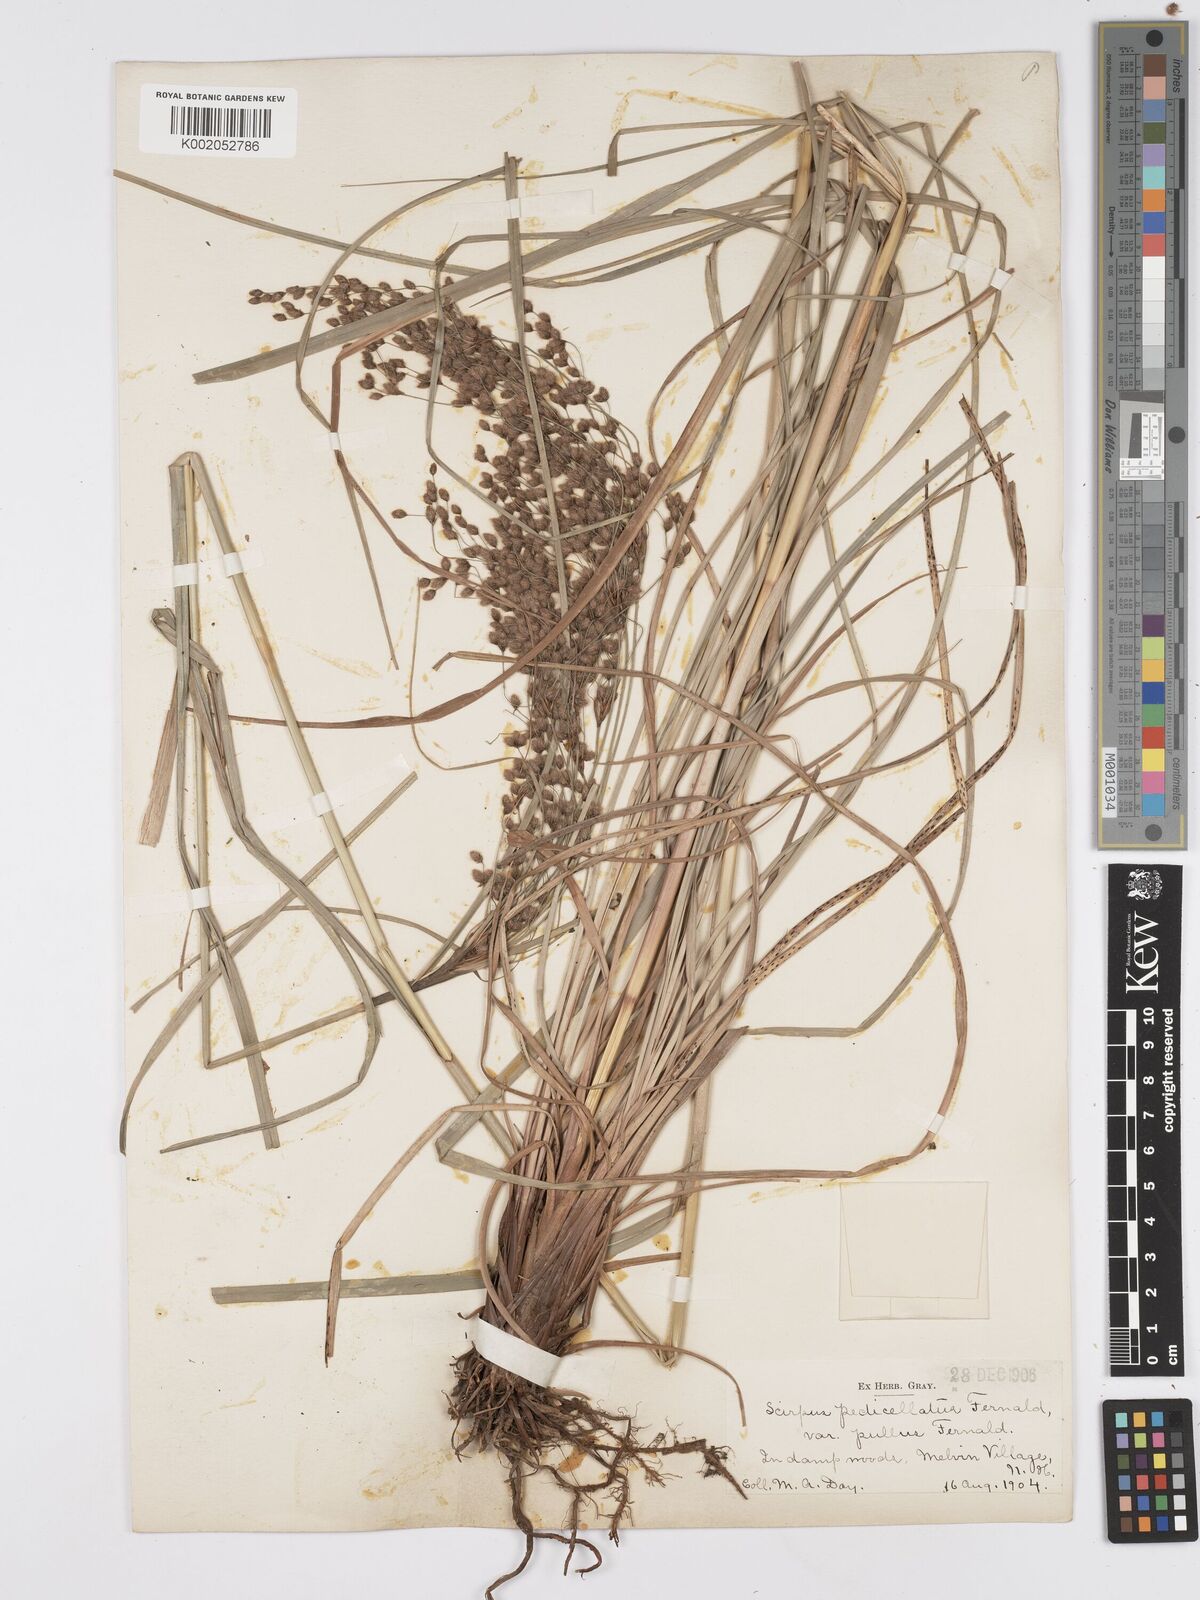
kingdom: Plantae
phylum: Tracheophyta
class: Liliopsida
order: Poales
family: Cyperaceae
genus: Scirpus
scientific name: Scirpus cyperinus
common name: Black-sheathed bulrush
